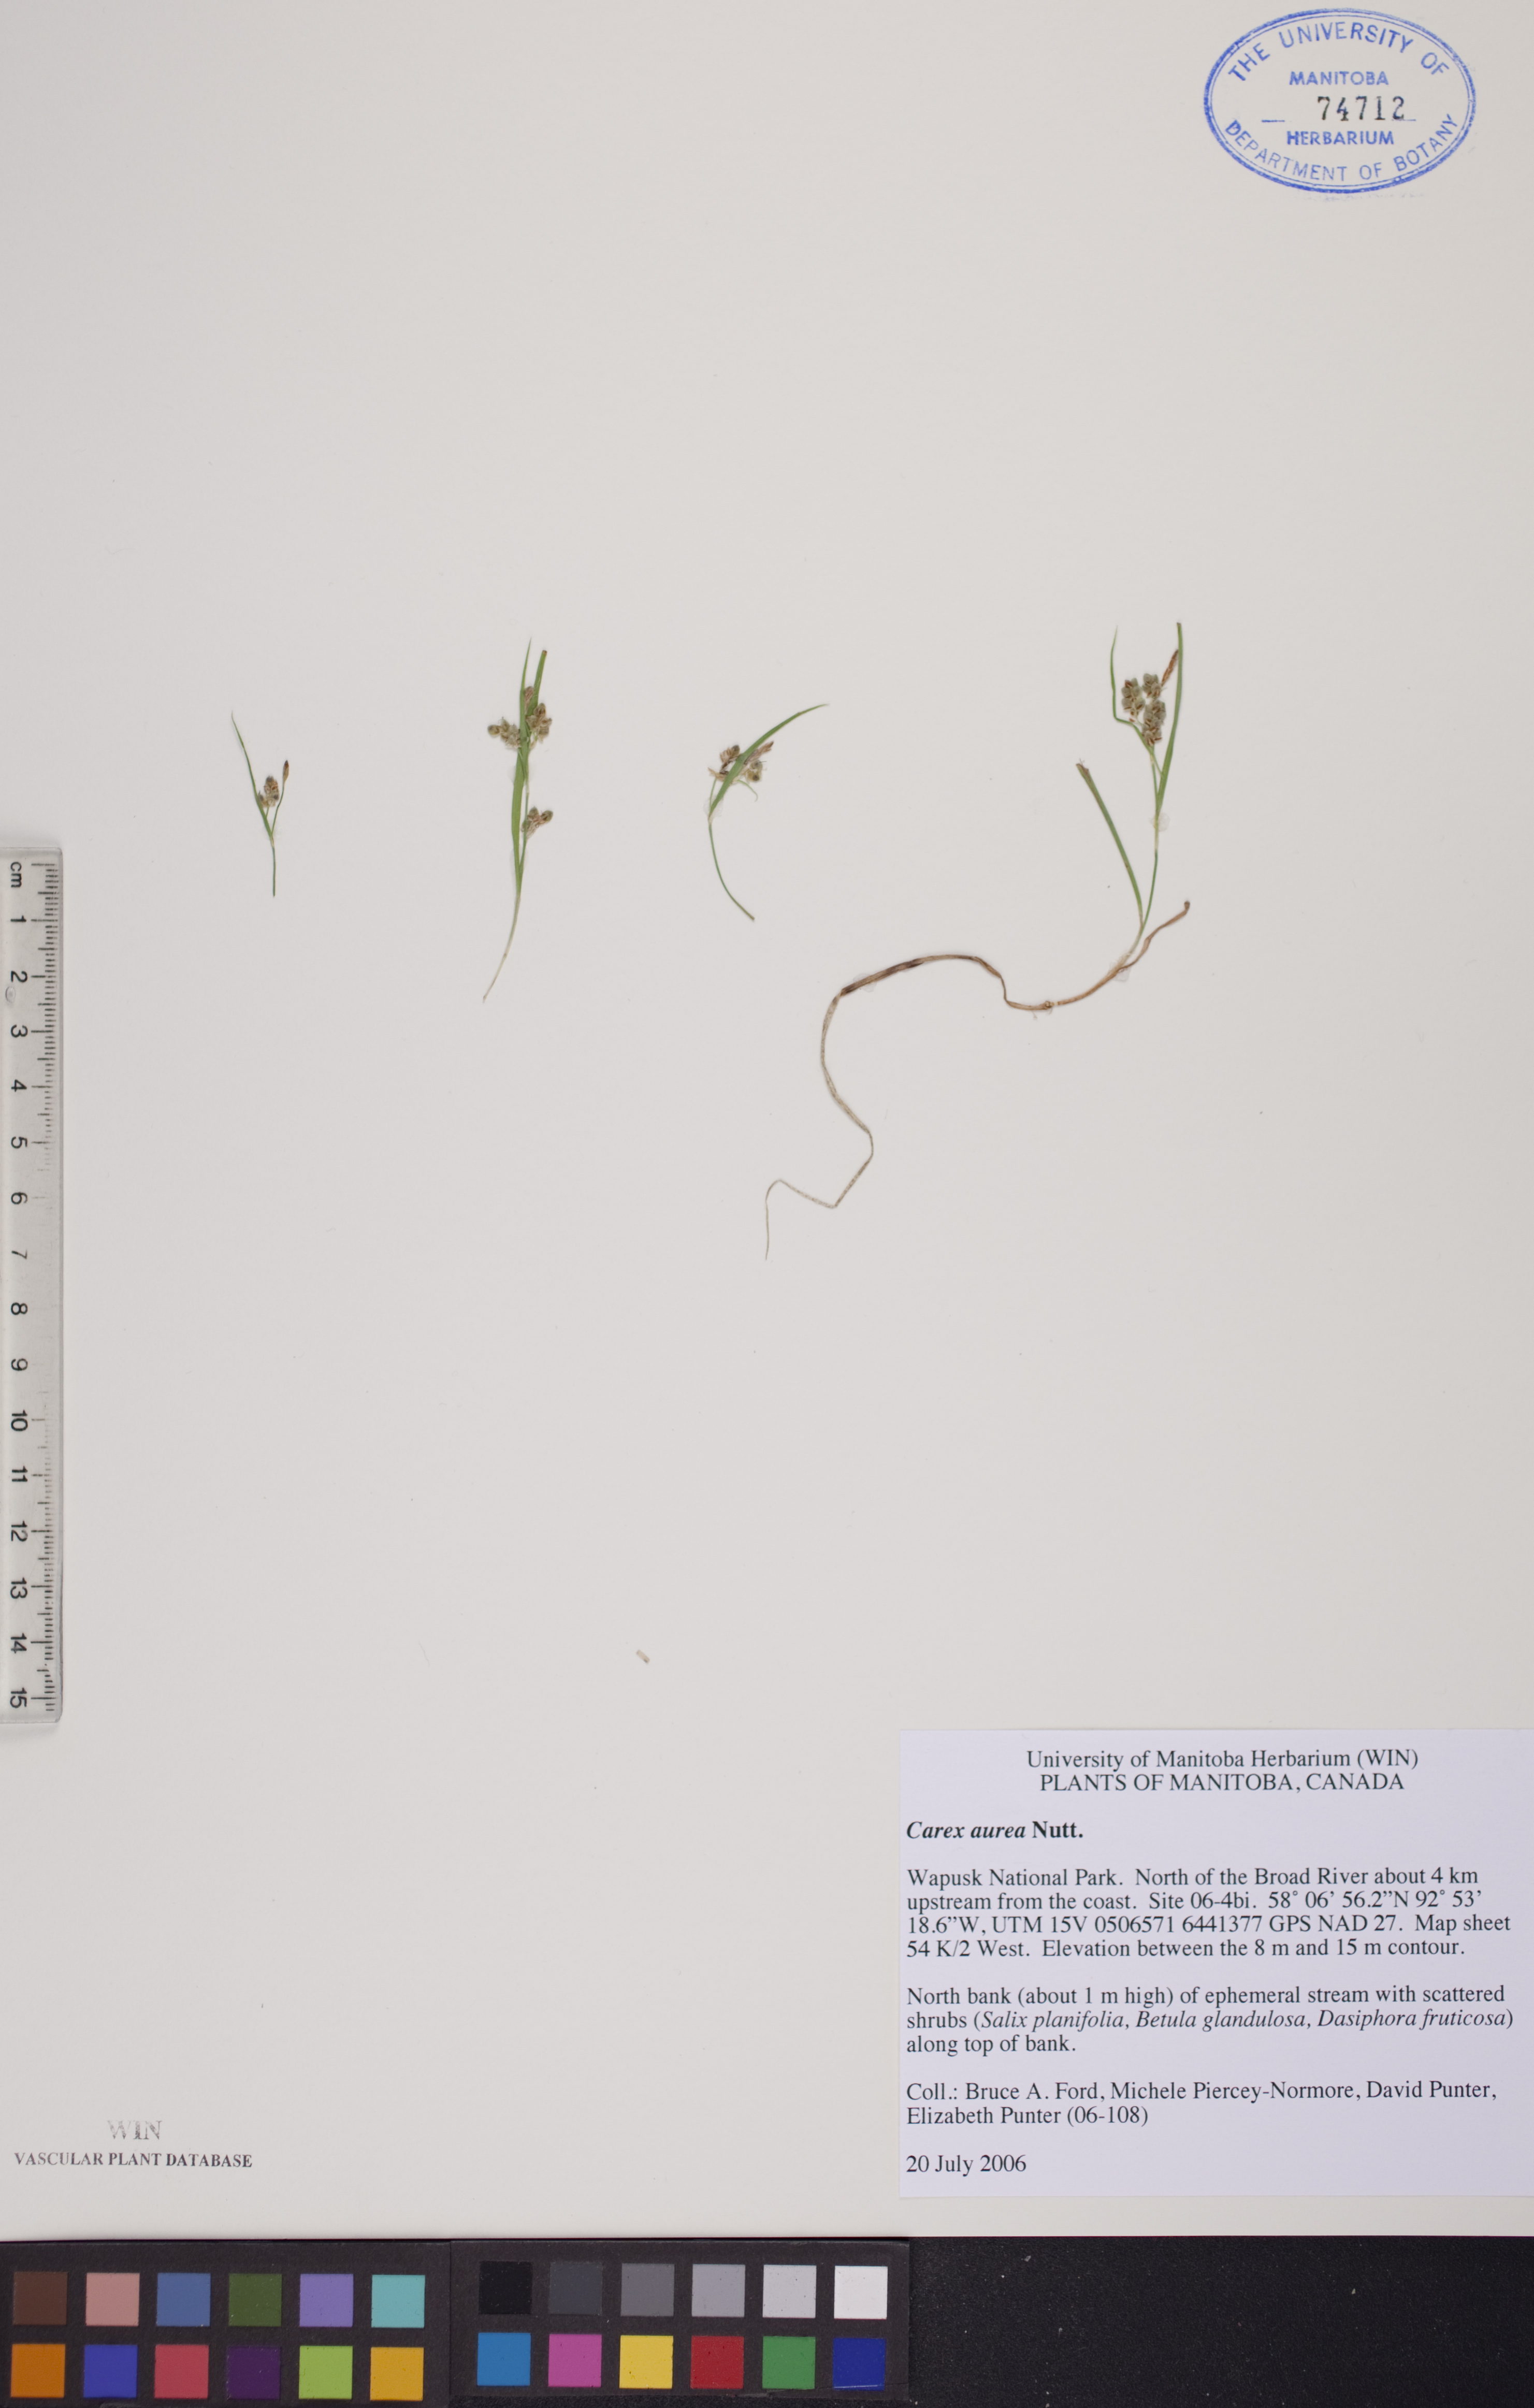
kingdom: Plantae
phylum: Tracheophyta
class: Liliopsida
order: Poales
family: Cyperaceae
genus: Carex
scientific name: Carex aurea
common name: Golden sedge
